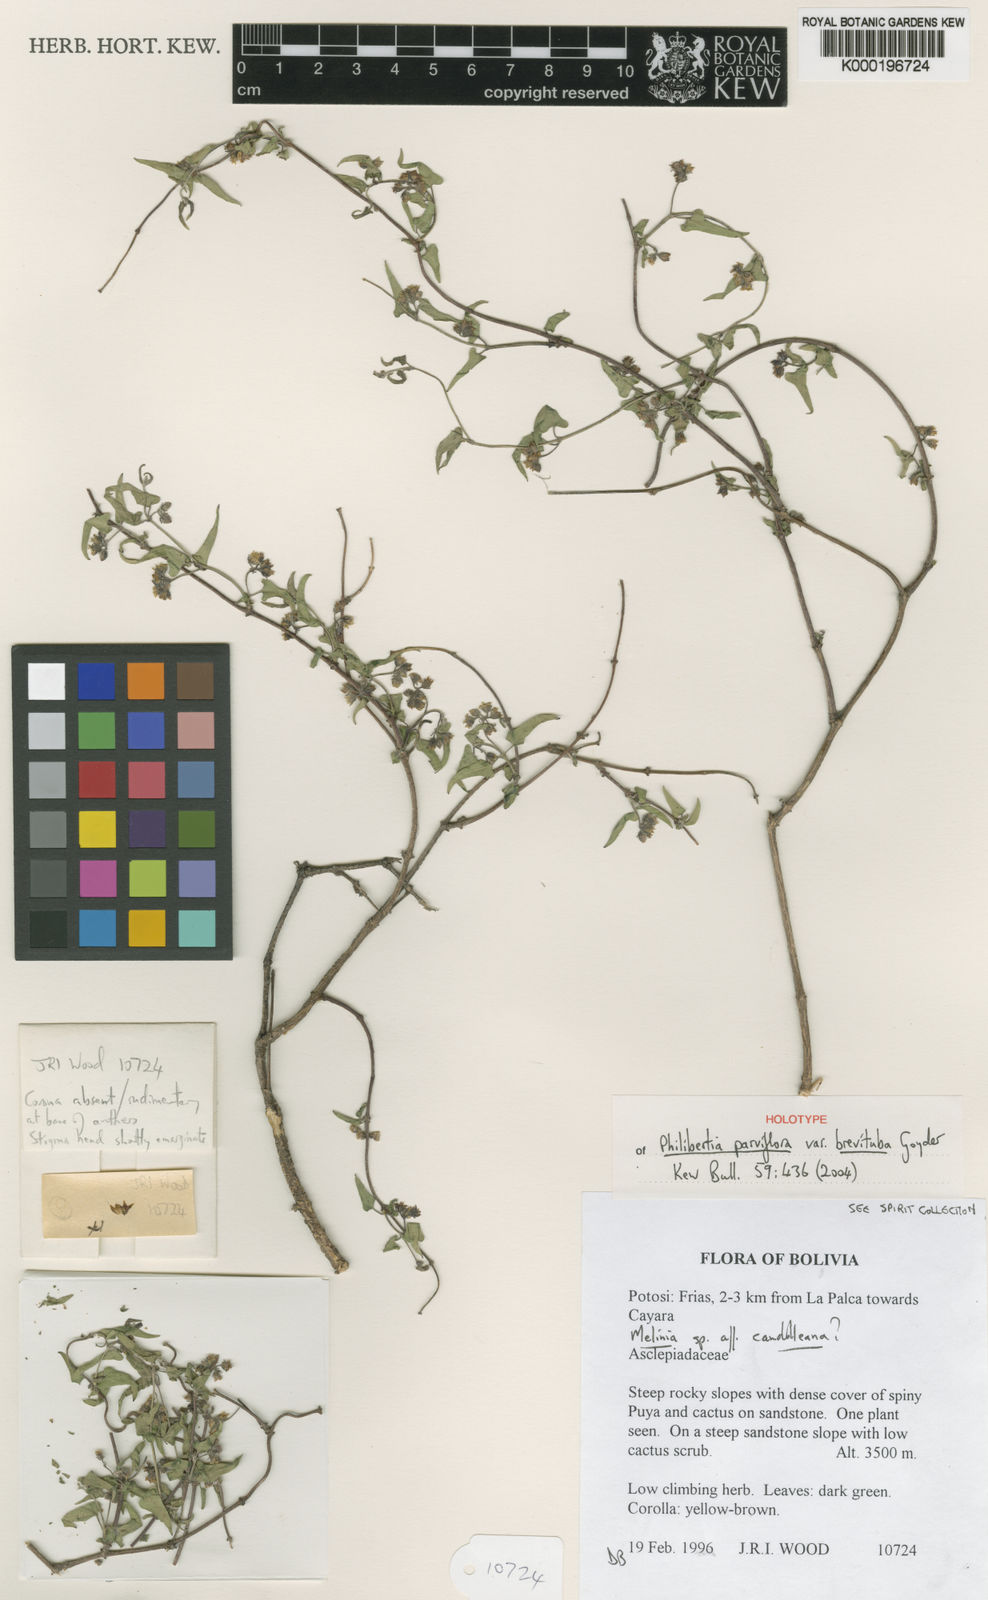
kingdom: Plantae
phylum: Tracheophyta
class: Magnoliopsida
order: Gentianales
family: Apocynaceae
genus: Philibertia
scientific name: Philibertia parviflora
